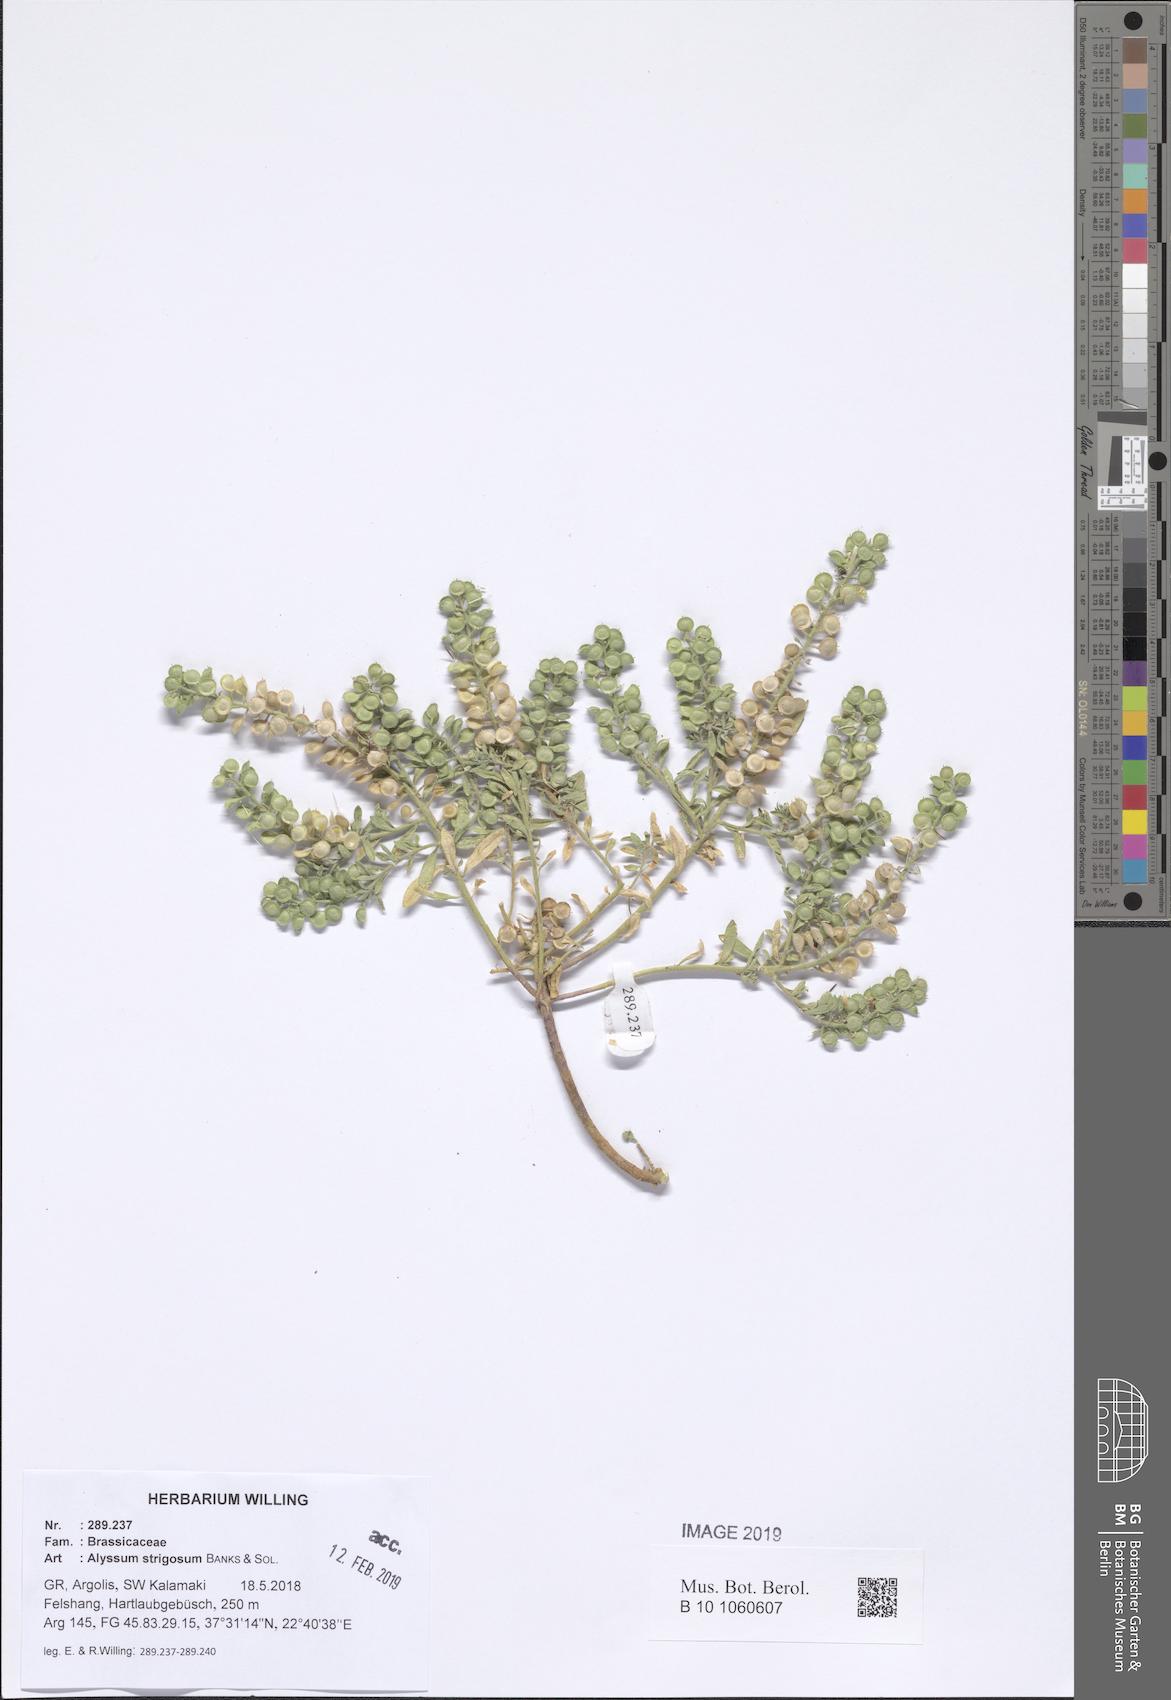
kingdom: Plantae
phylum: Tracheophyta
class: Magnoliopsida
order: Brassicales
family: Brassicaceae
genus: Alyssum
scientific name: Alyssum strigosum
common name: Alyssum
